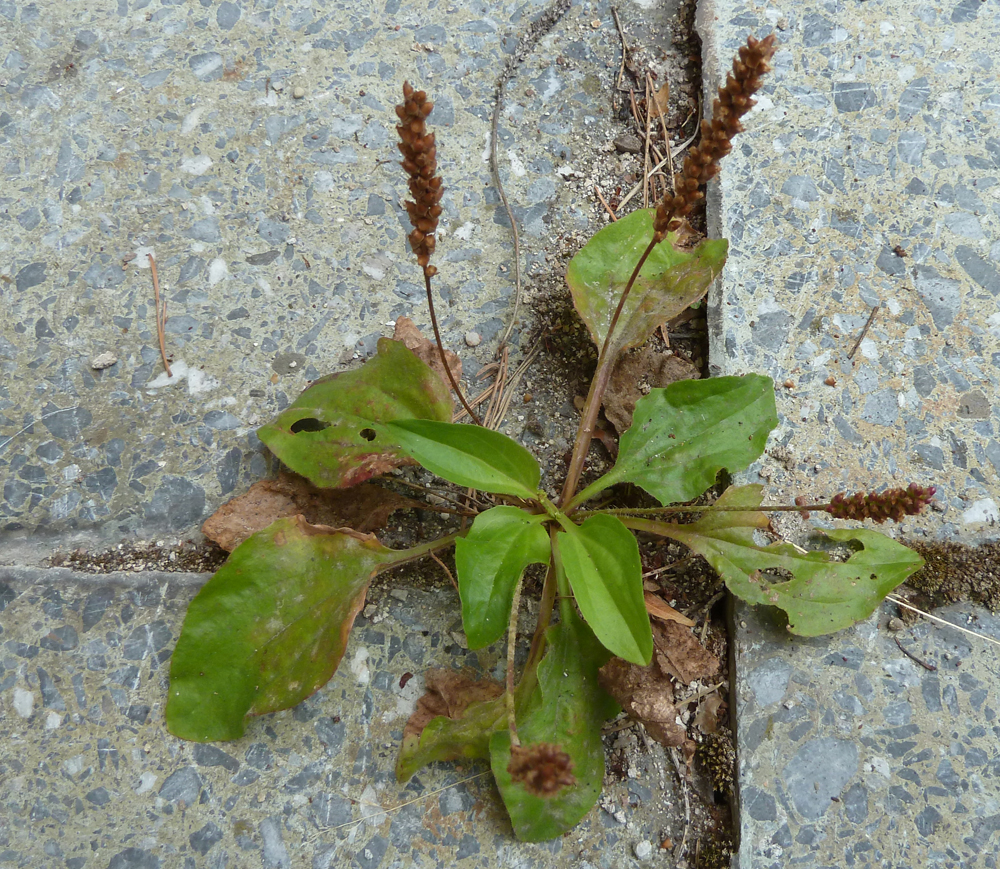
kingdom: Plantae
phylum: Tracheophyta
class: Magnoliopsida
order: Lamiales
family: Plantaginaceae
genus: Plantago
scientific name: Plantago major
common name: Common plantain
